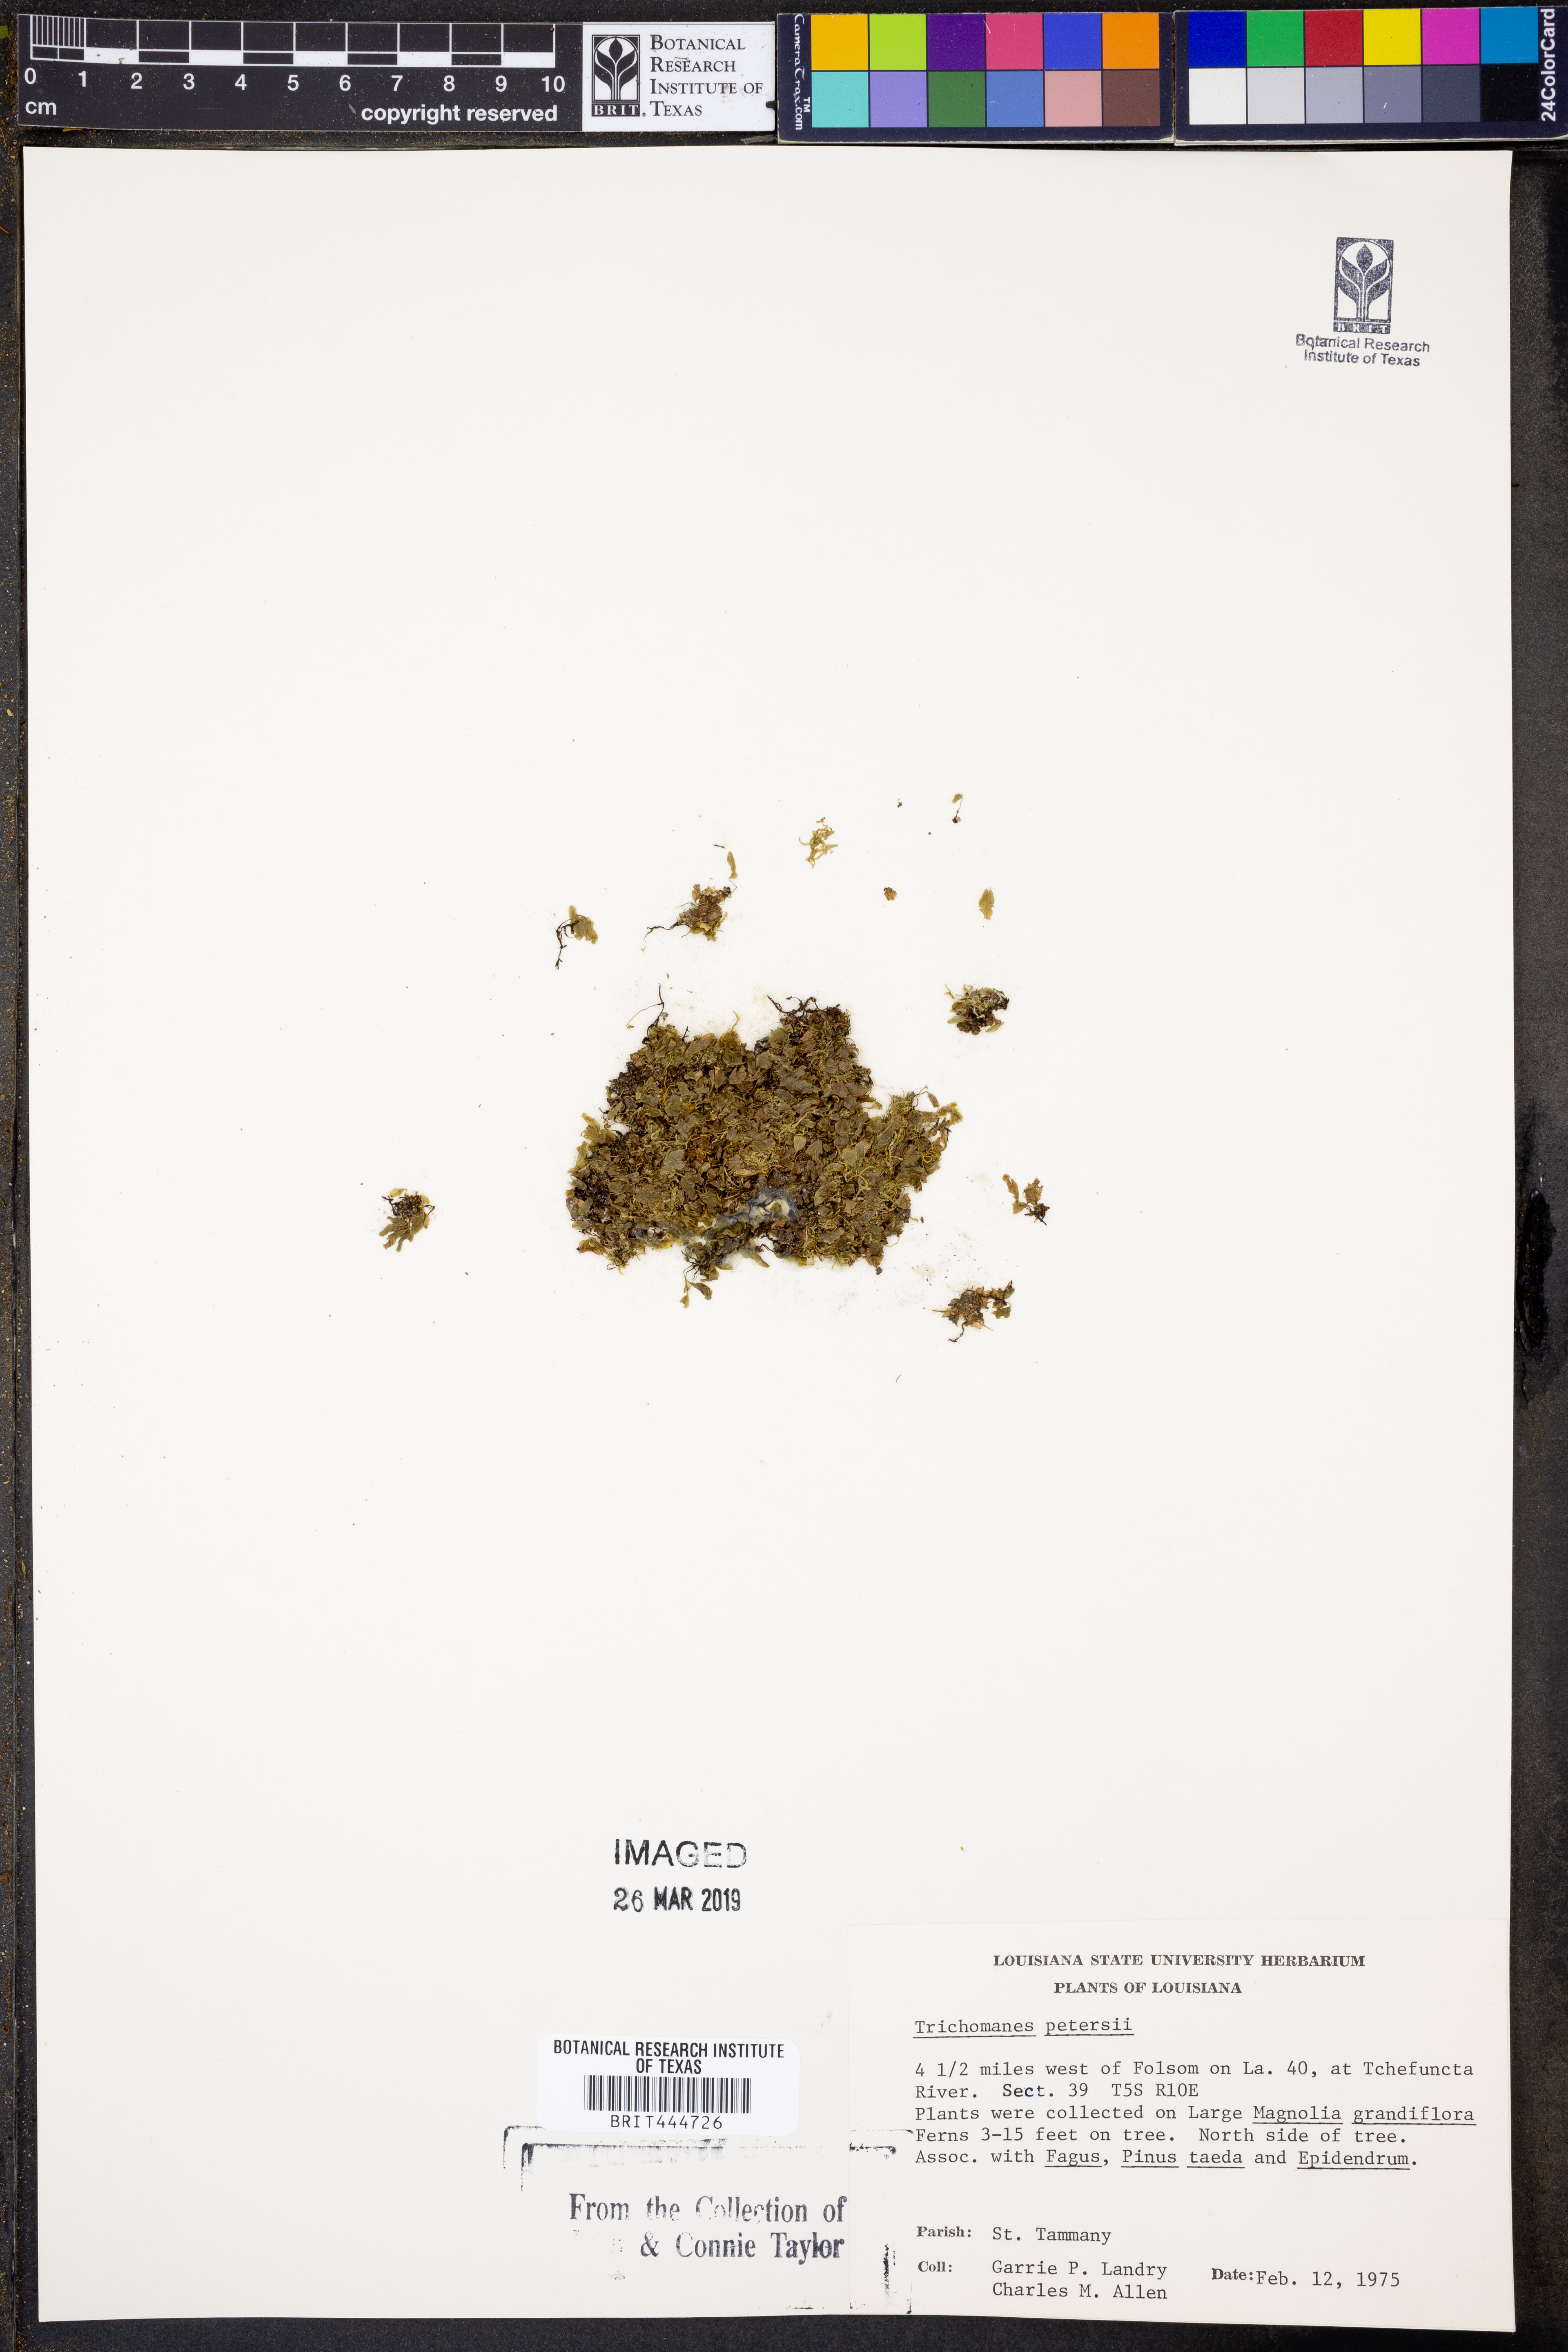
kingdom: Plantae
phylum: Tracheophyta
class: Polypodiopsida
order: Hymenophyllales
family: Hymenophyllaceae
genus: Didymoglossum
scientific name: Didymoglossum petersii
